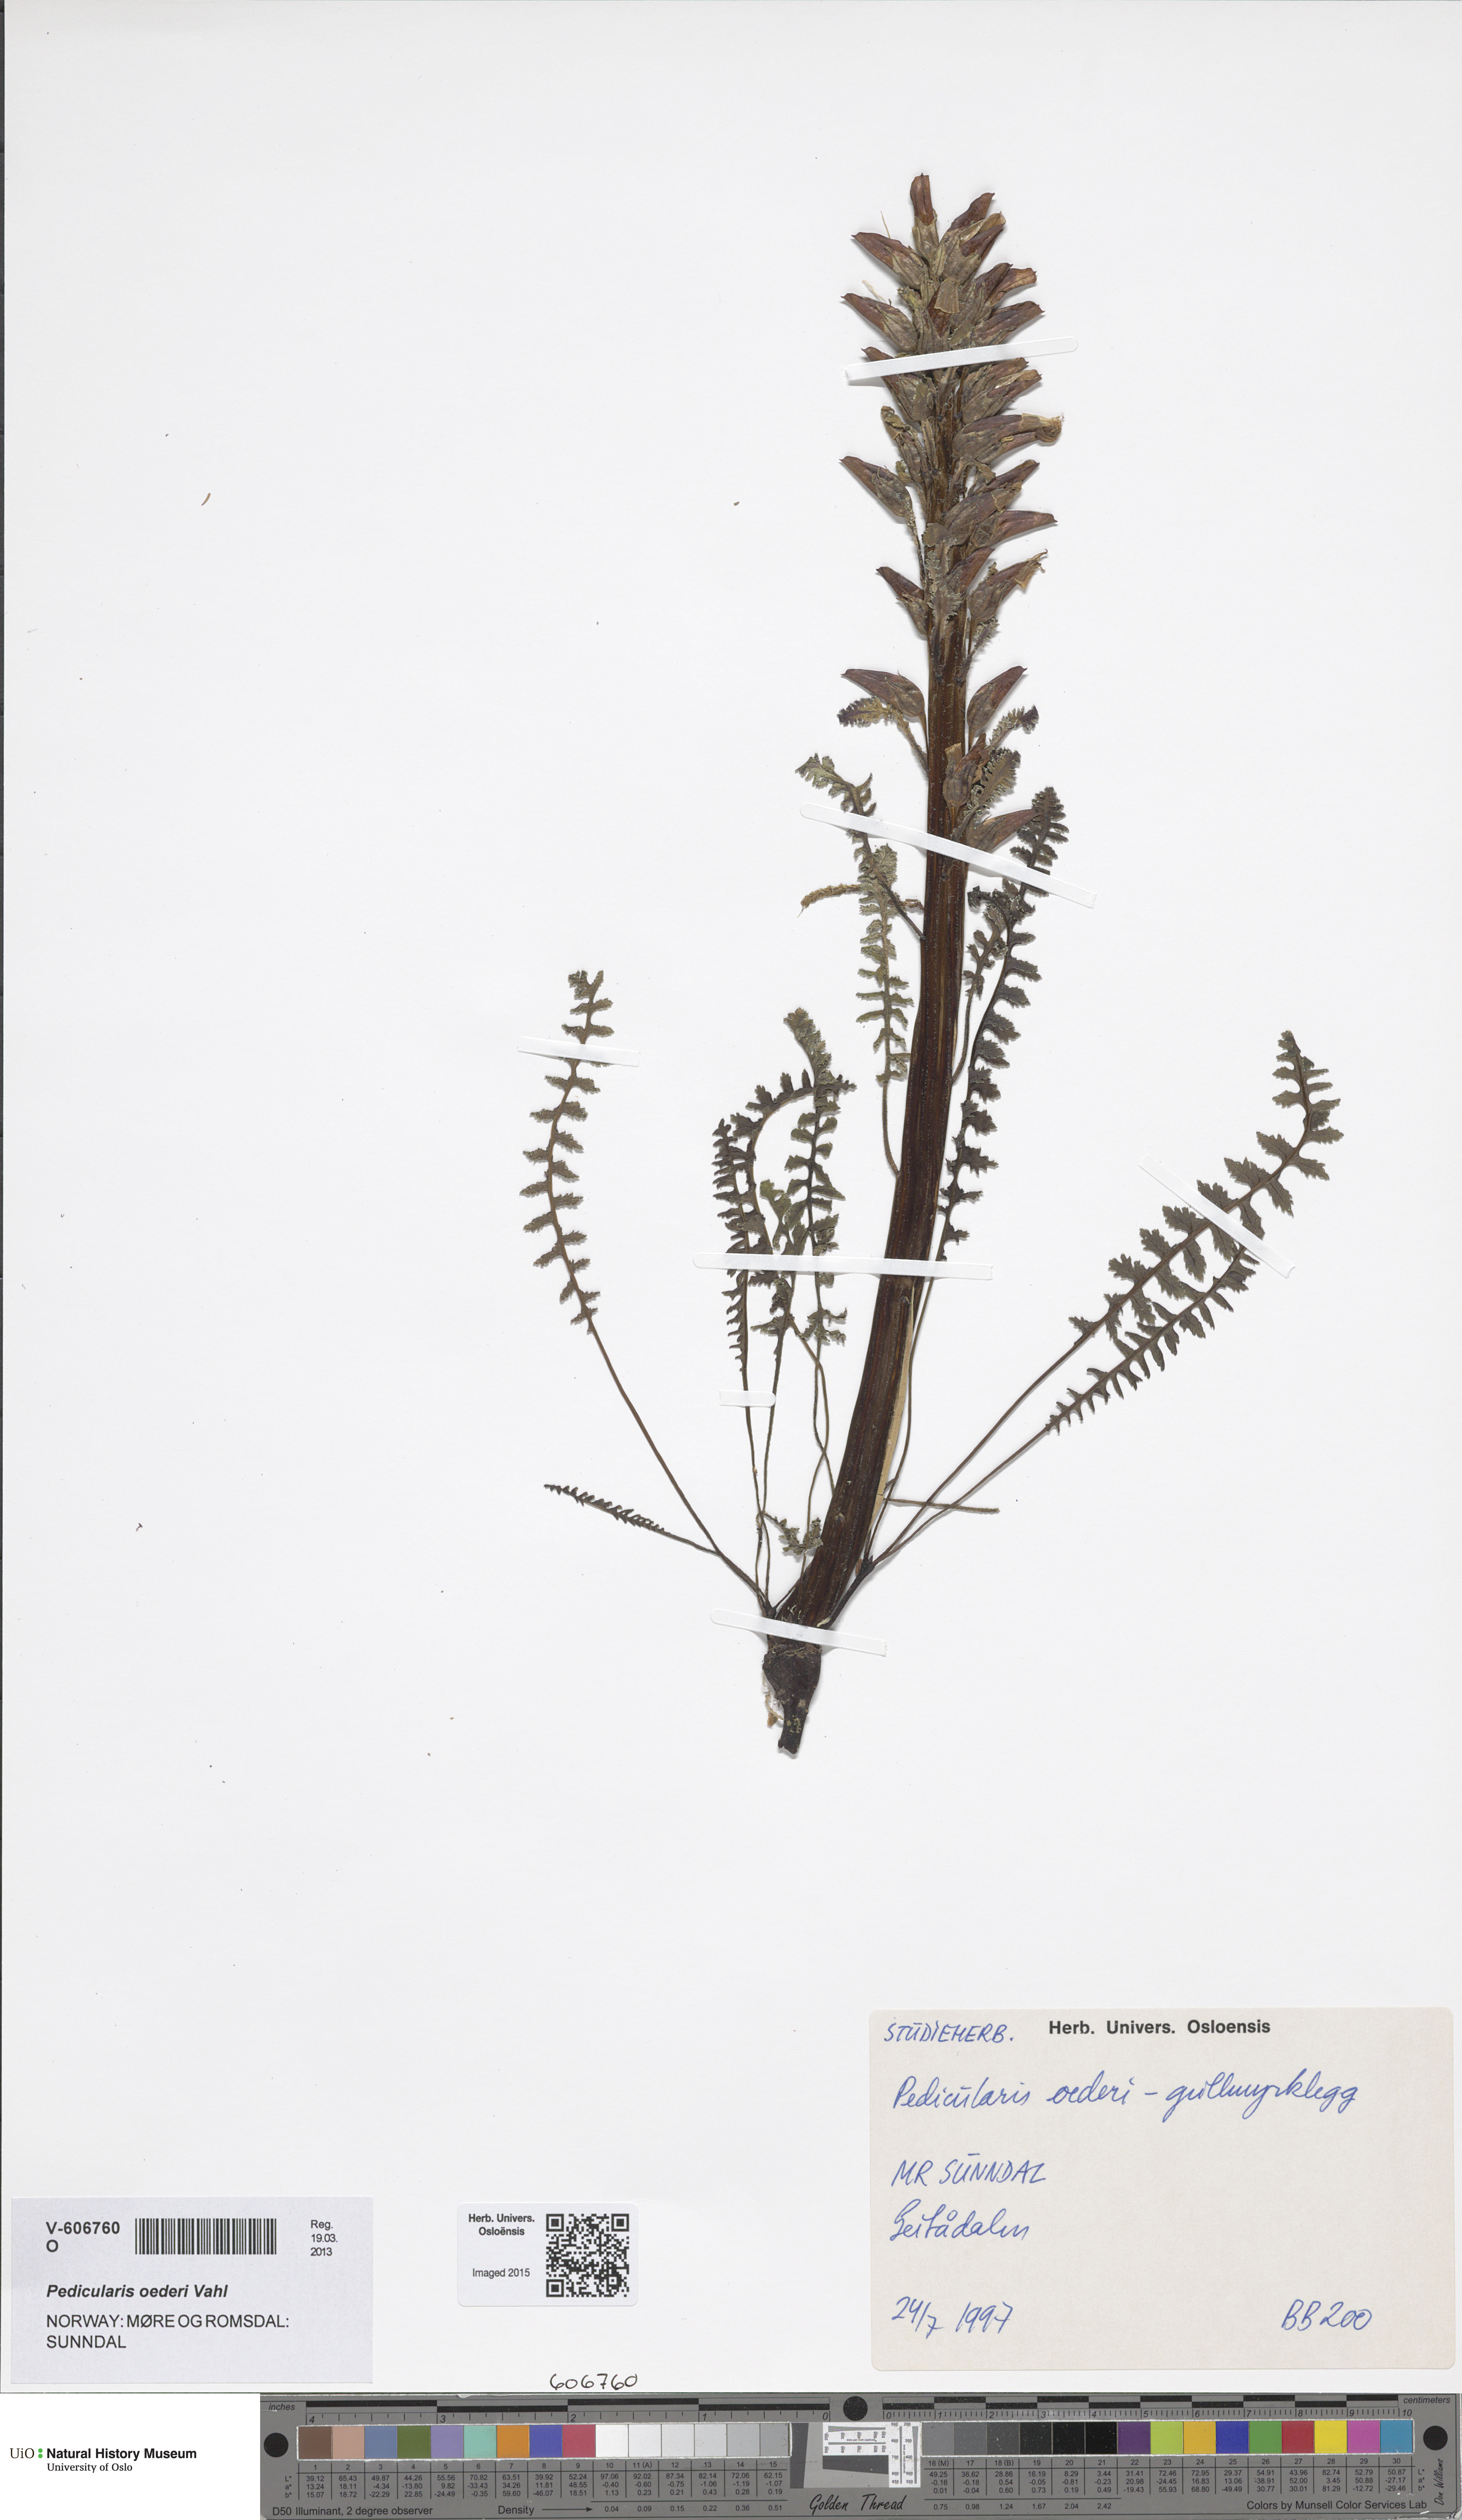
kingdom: Plantae
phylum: Tracheophyta
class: Magnoliopsida
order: Lamiales
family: Orobanchaceae
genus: Pedicularis
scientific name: Pedicularis oederi
